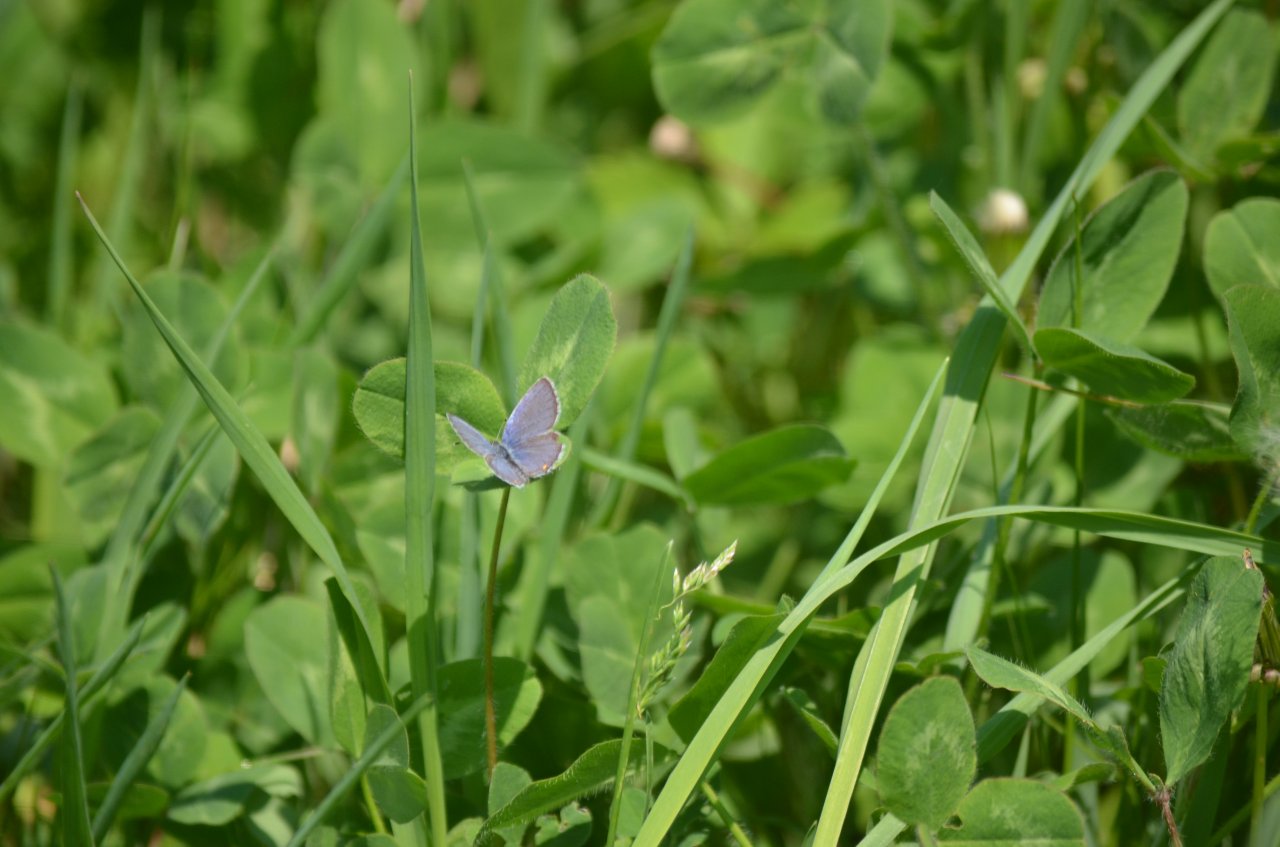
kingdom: Animalia
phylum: Arthropoda
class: Insecta
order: Lepidoptera
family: Lycaenidae
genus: Elkalyce
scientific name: Elkalyce comyntas
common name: Eastern Tailed-Blue
